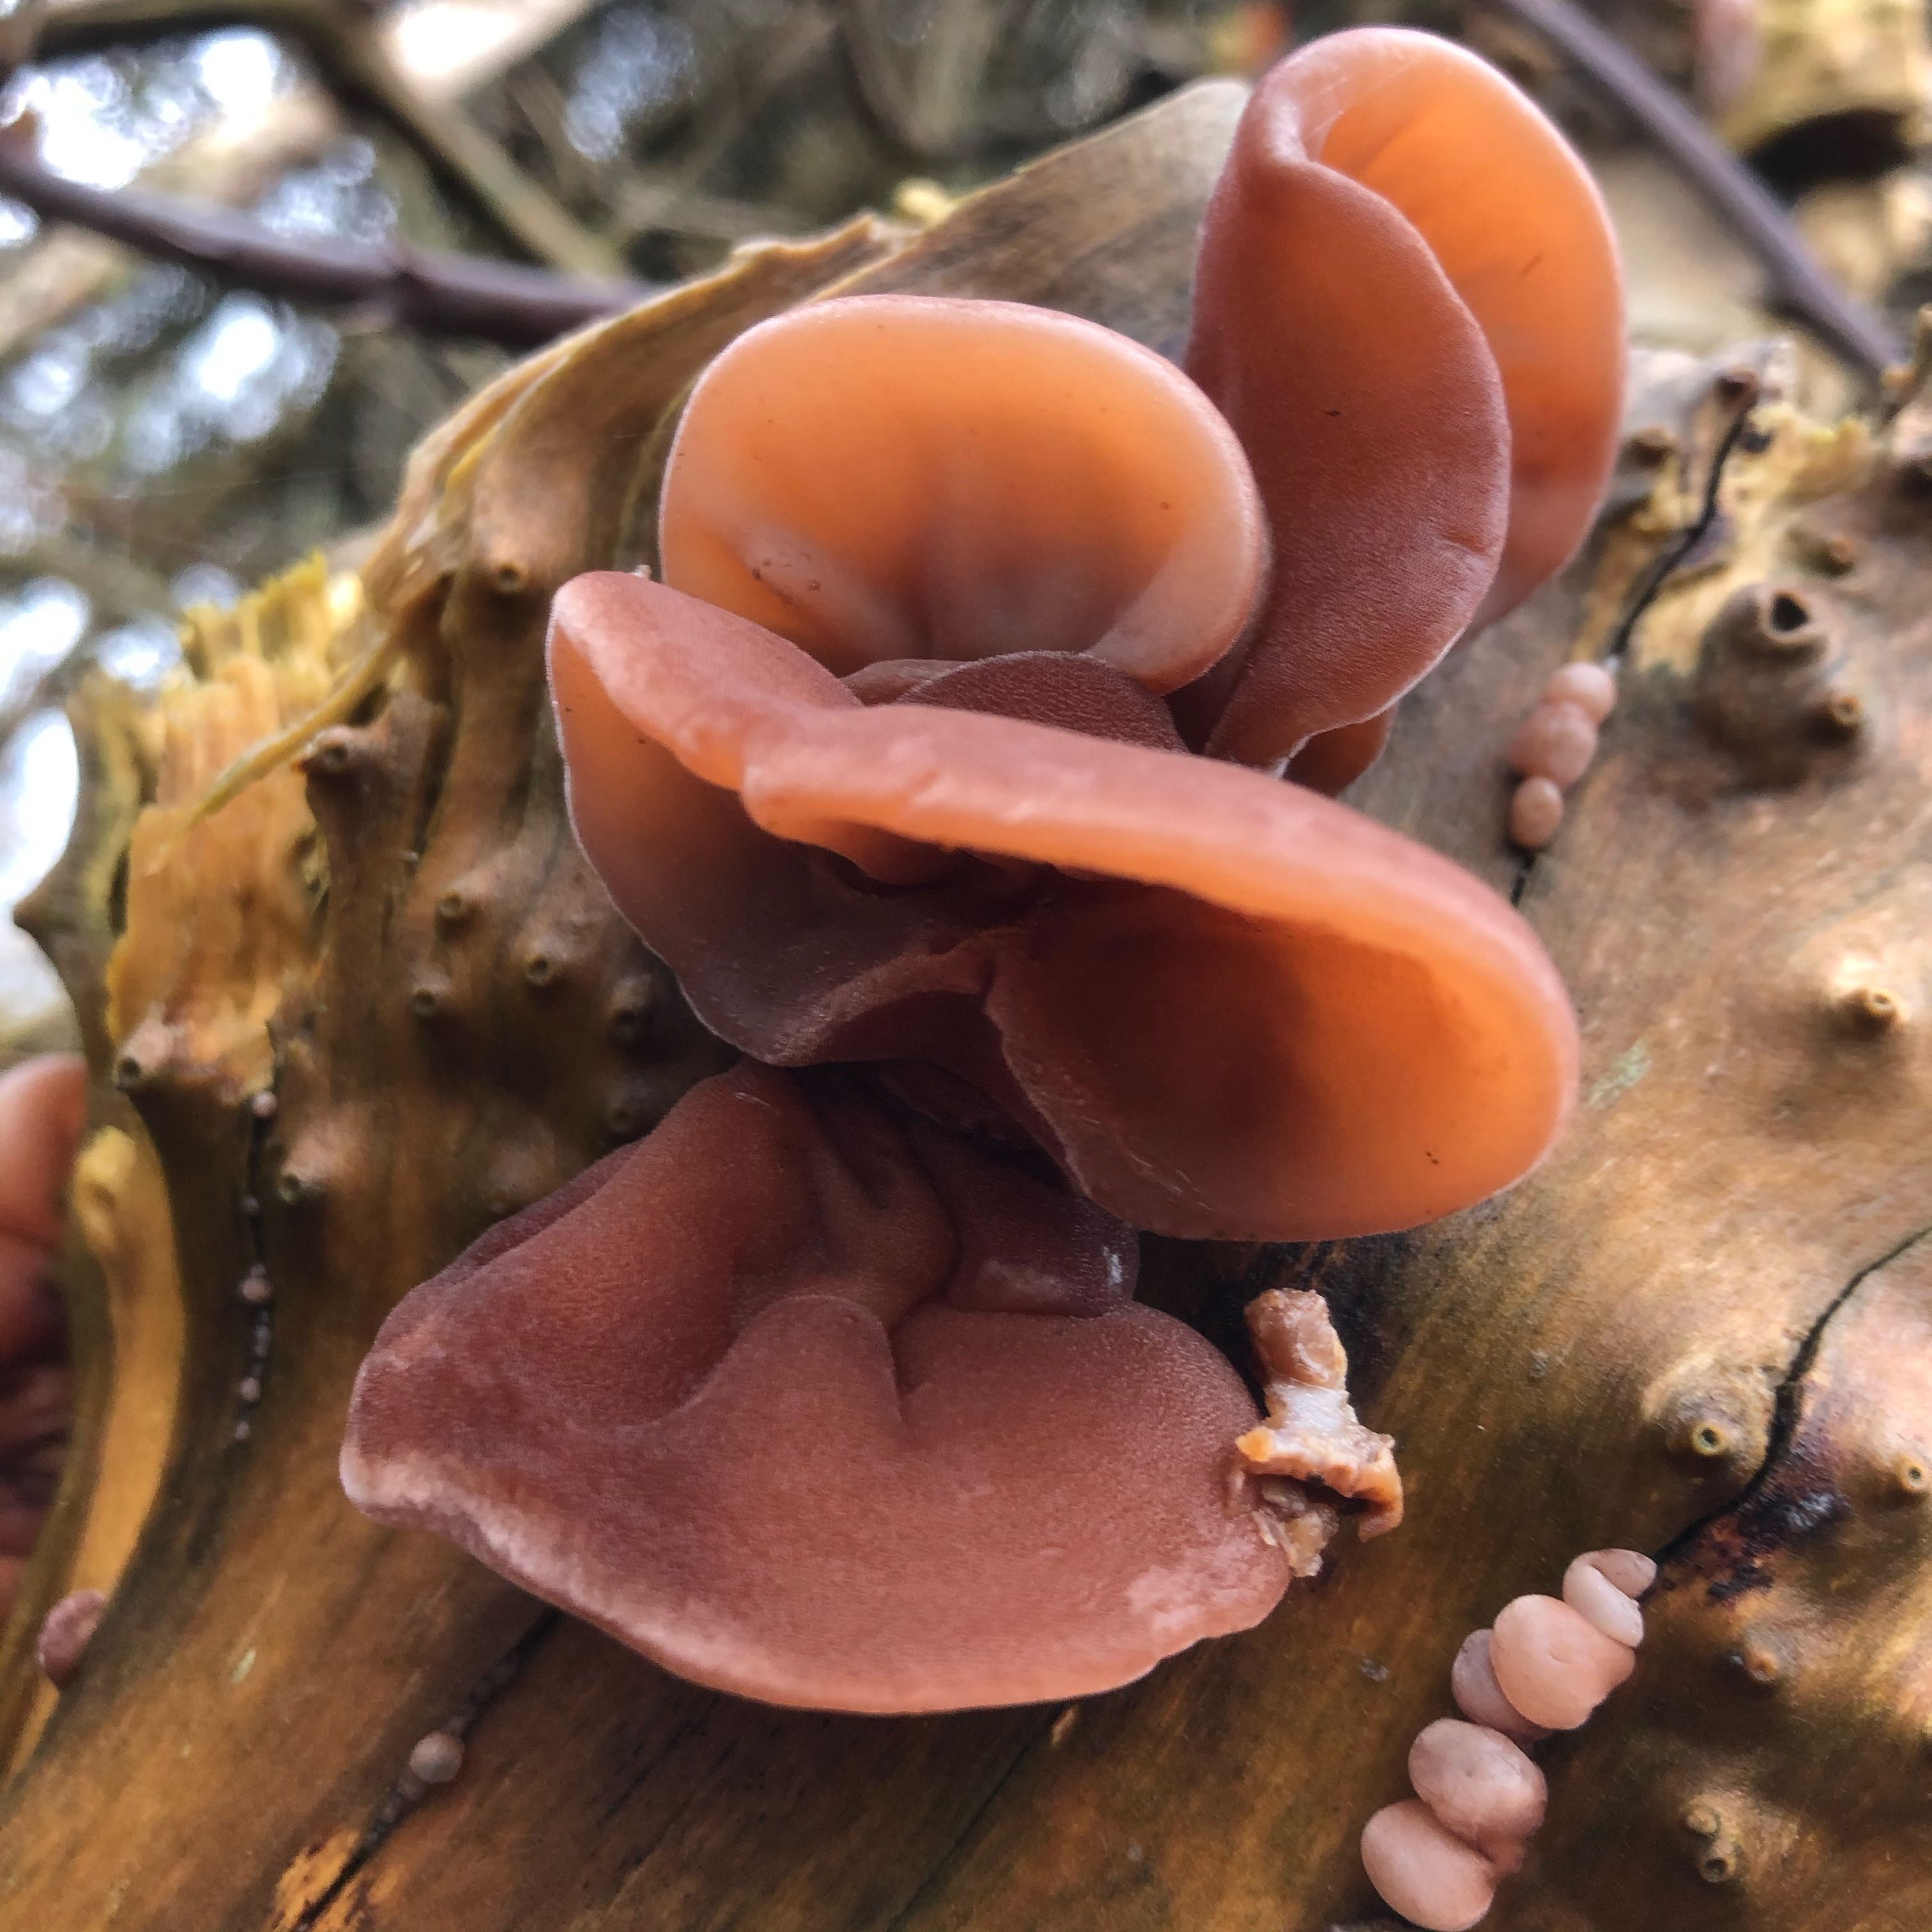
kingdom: Fungi
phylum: Basidiomycota
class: Agaricomycetes
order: Auriculariales
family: Auriculariaceae
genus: Auricularia
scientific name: Auricularia auricula-judae
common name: almindelig judasøre
